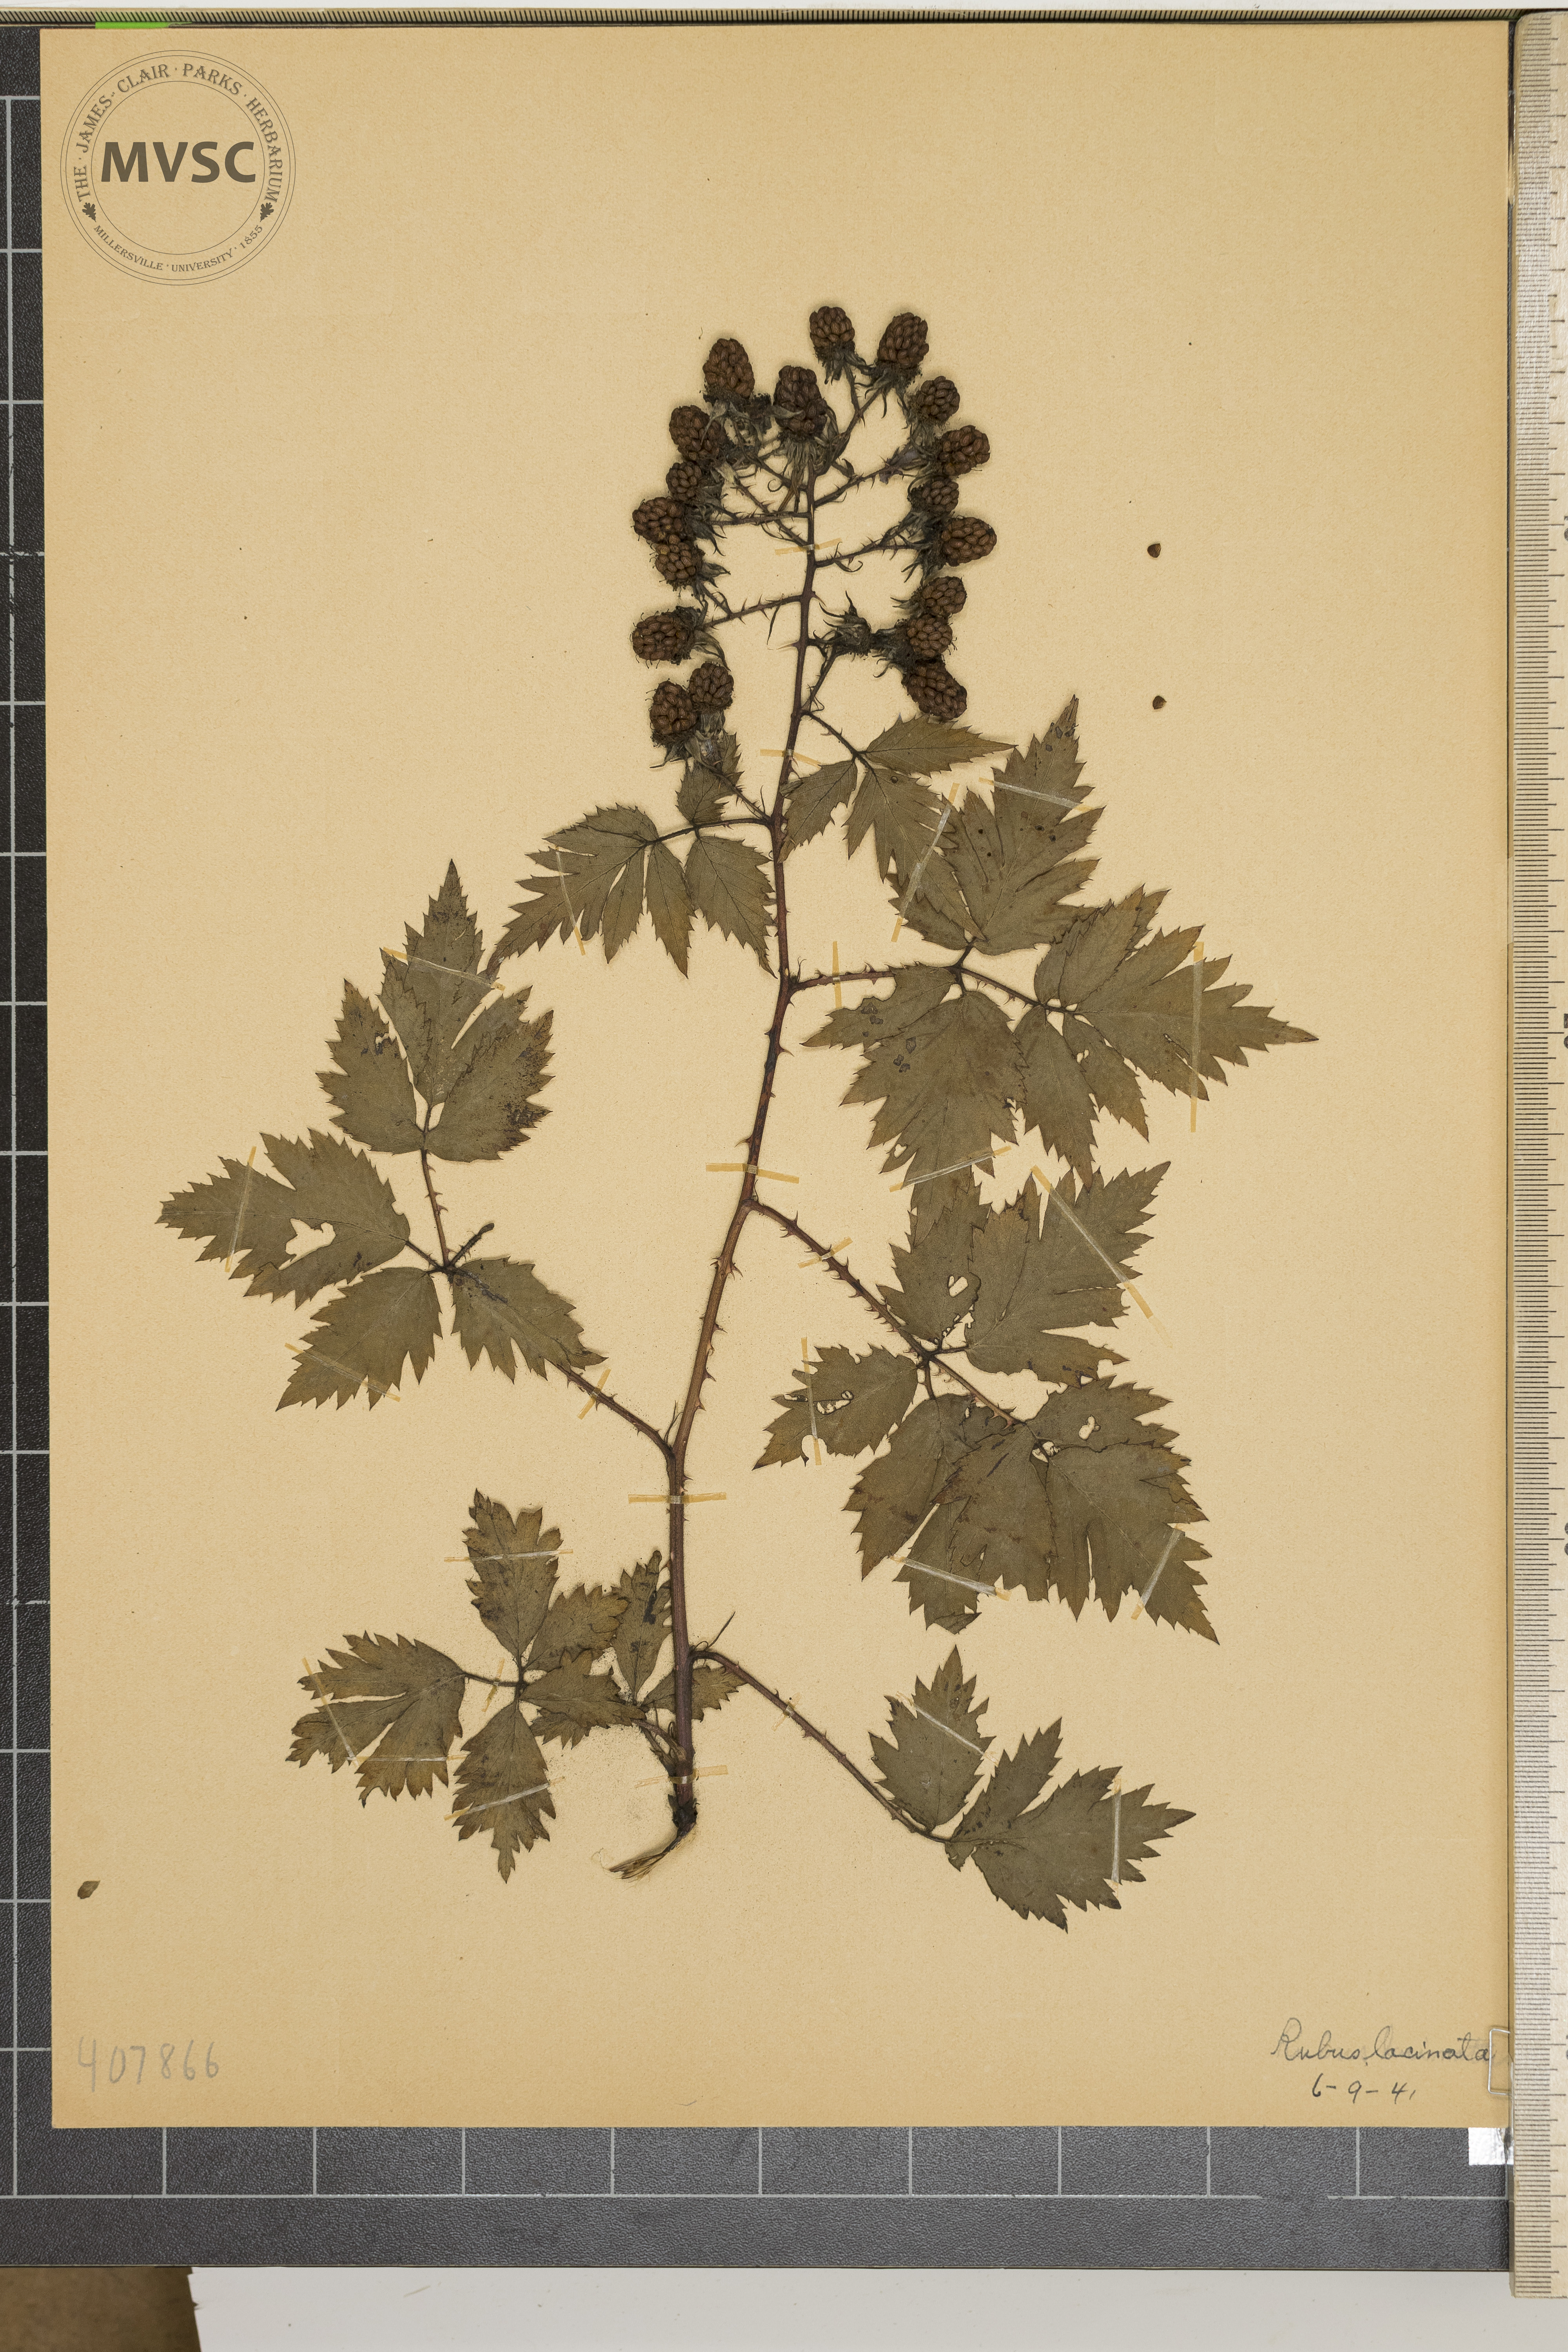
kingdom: Plantae
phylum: Tracheophyta
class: Magnoliopsida
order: Rosales
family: Rosaceae
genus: Rubus
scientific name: Rubus laciniatus
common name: Evergreen blackberry
